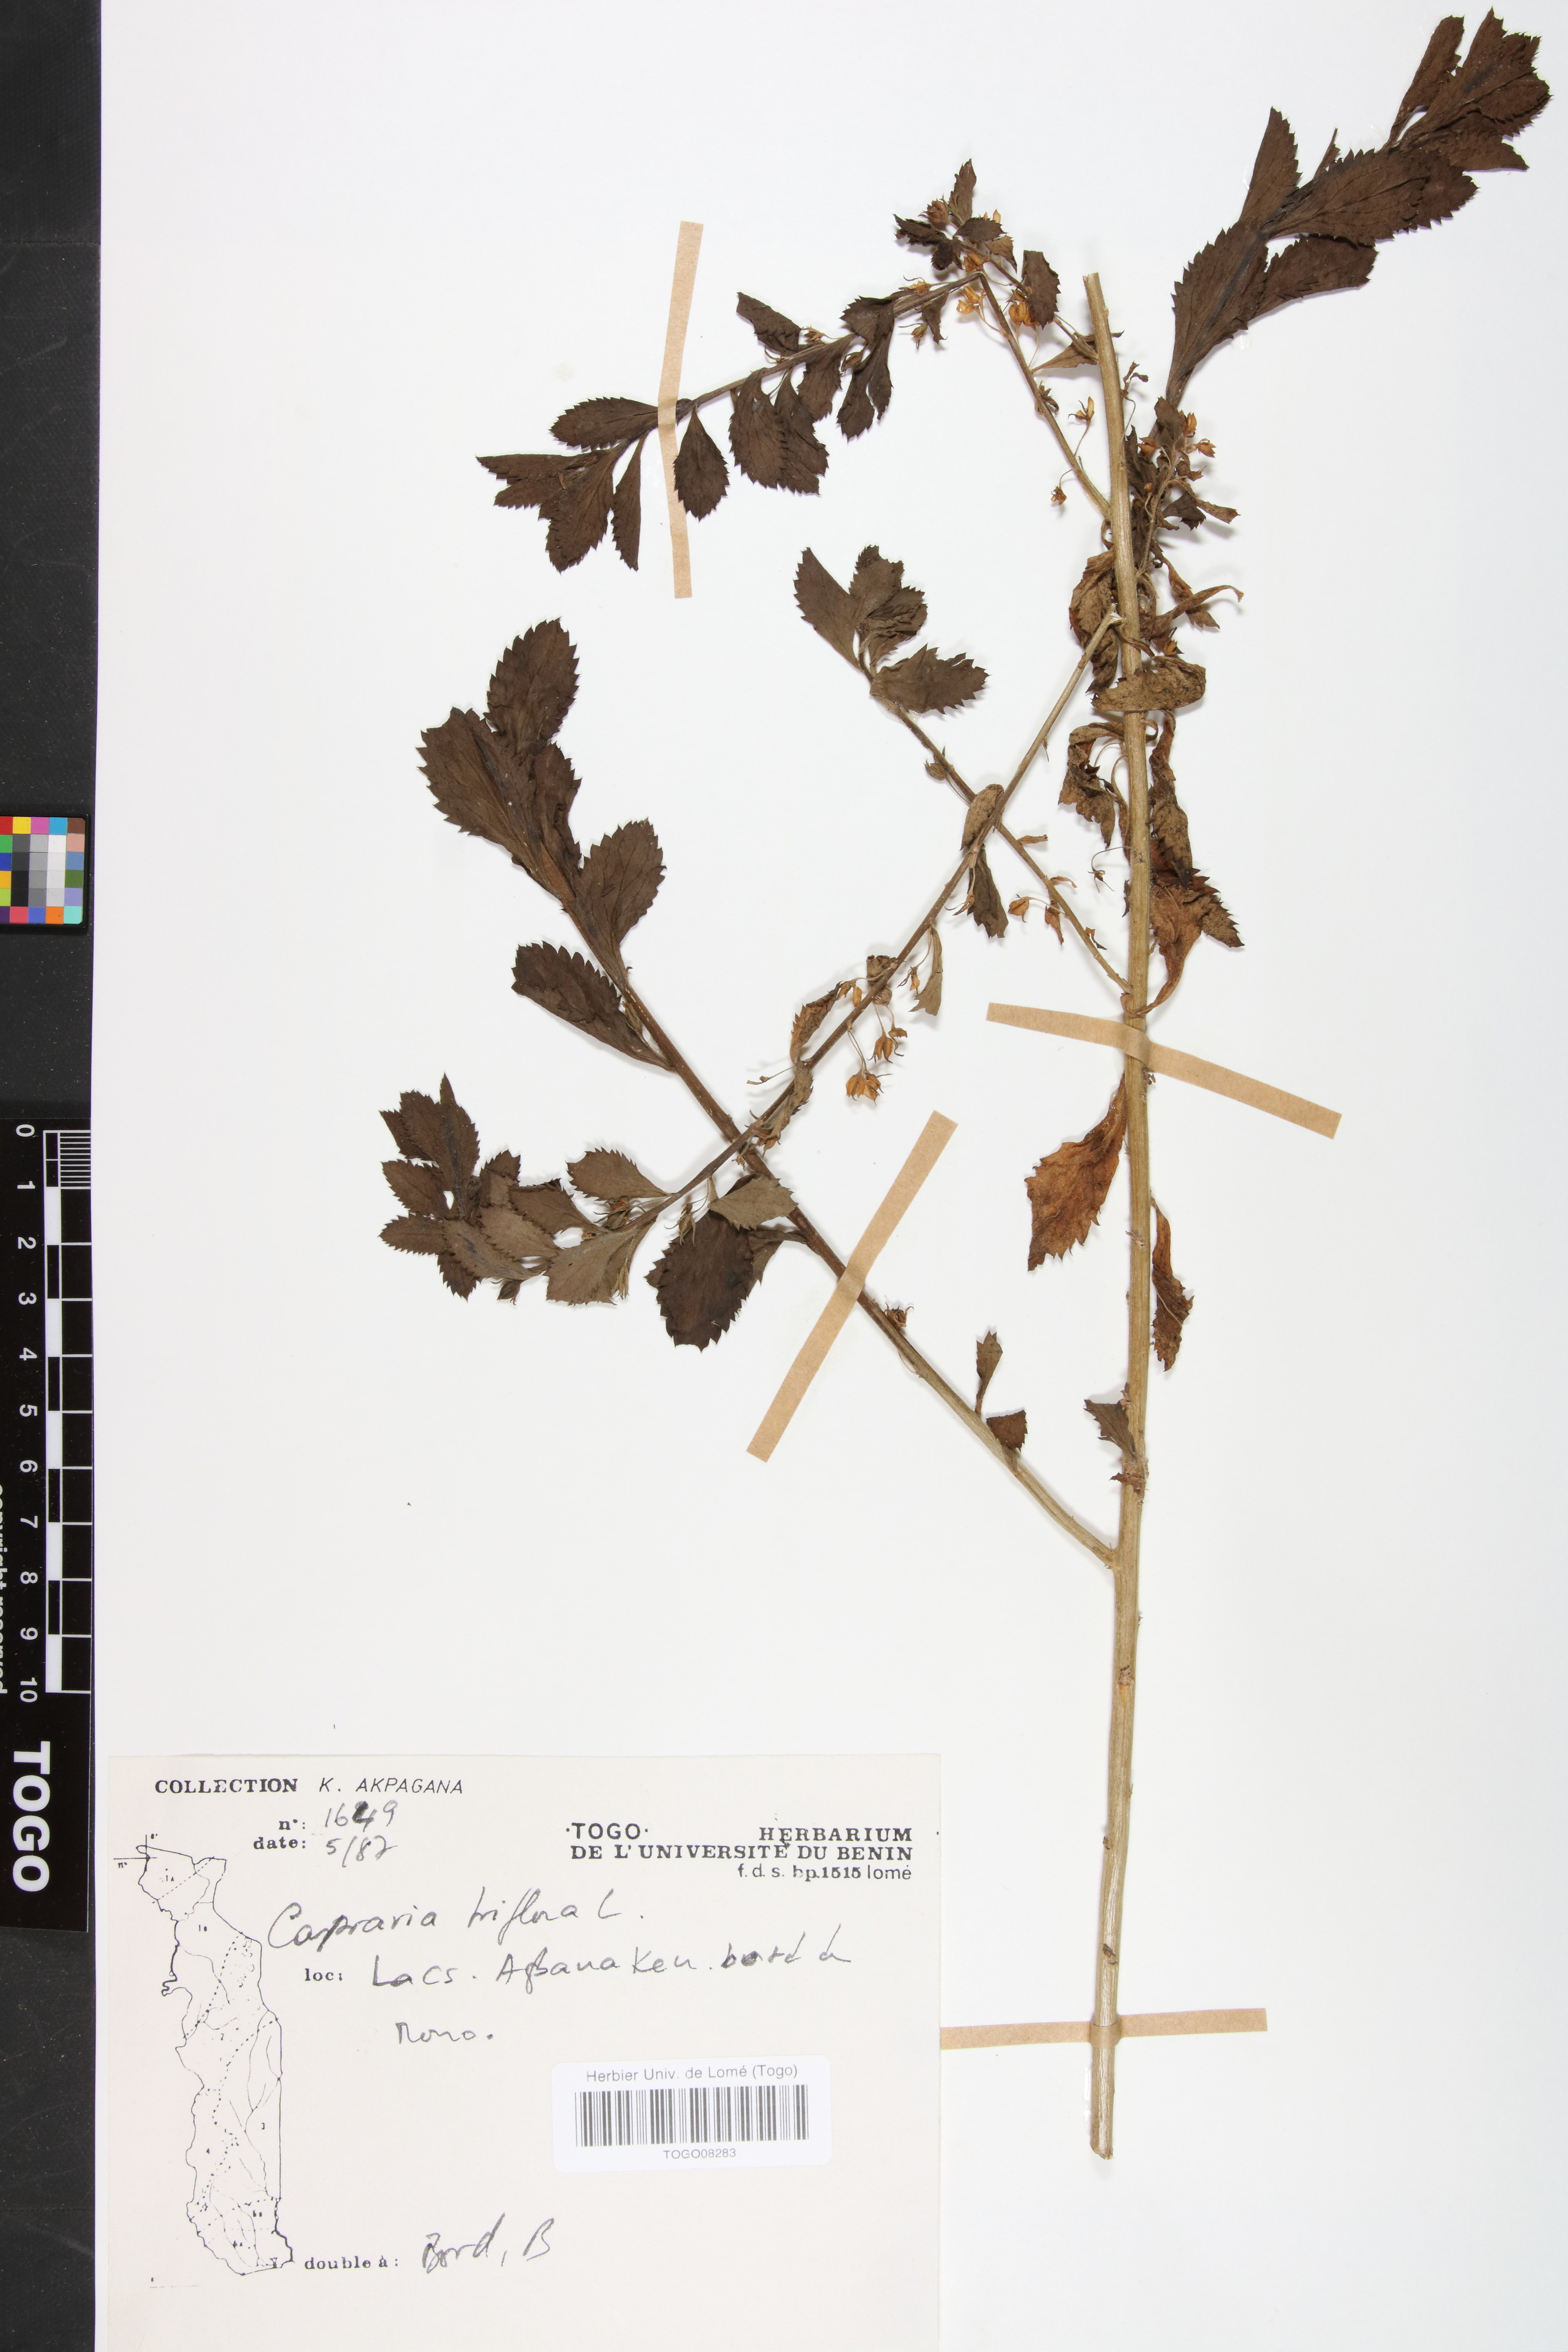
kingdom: Plantae
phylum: Tracheophyta
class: Magnoliopsida
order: Lamiales
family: Scrophulariaceae
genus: Capraria
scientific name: Capraria biflora
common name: Goatweed
